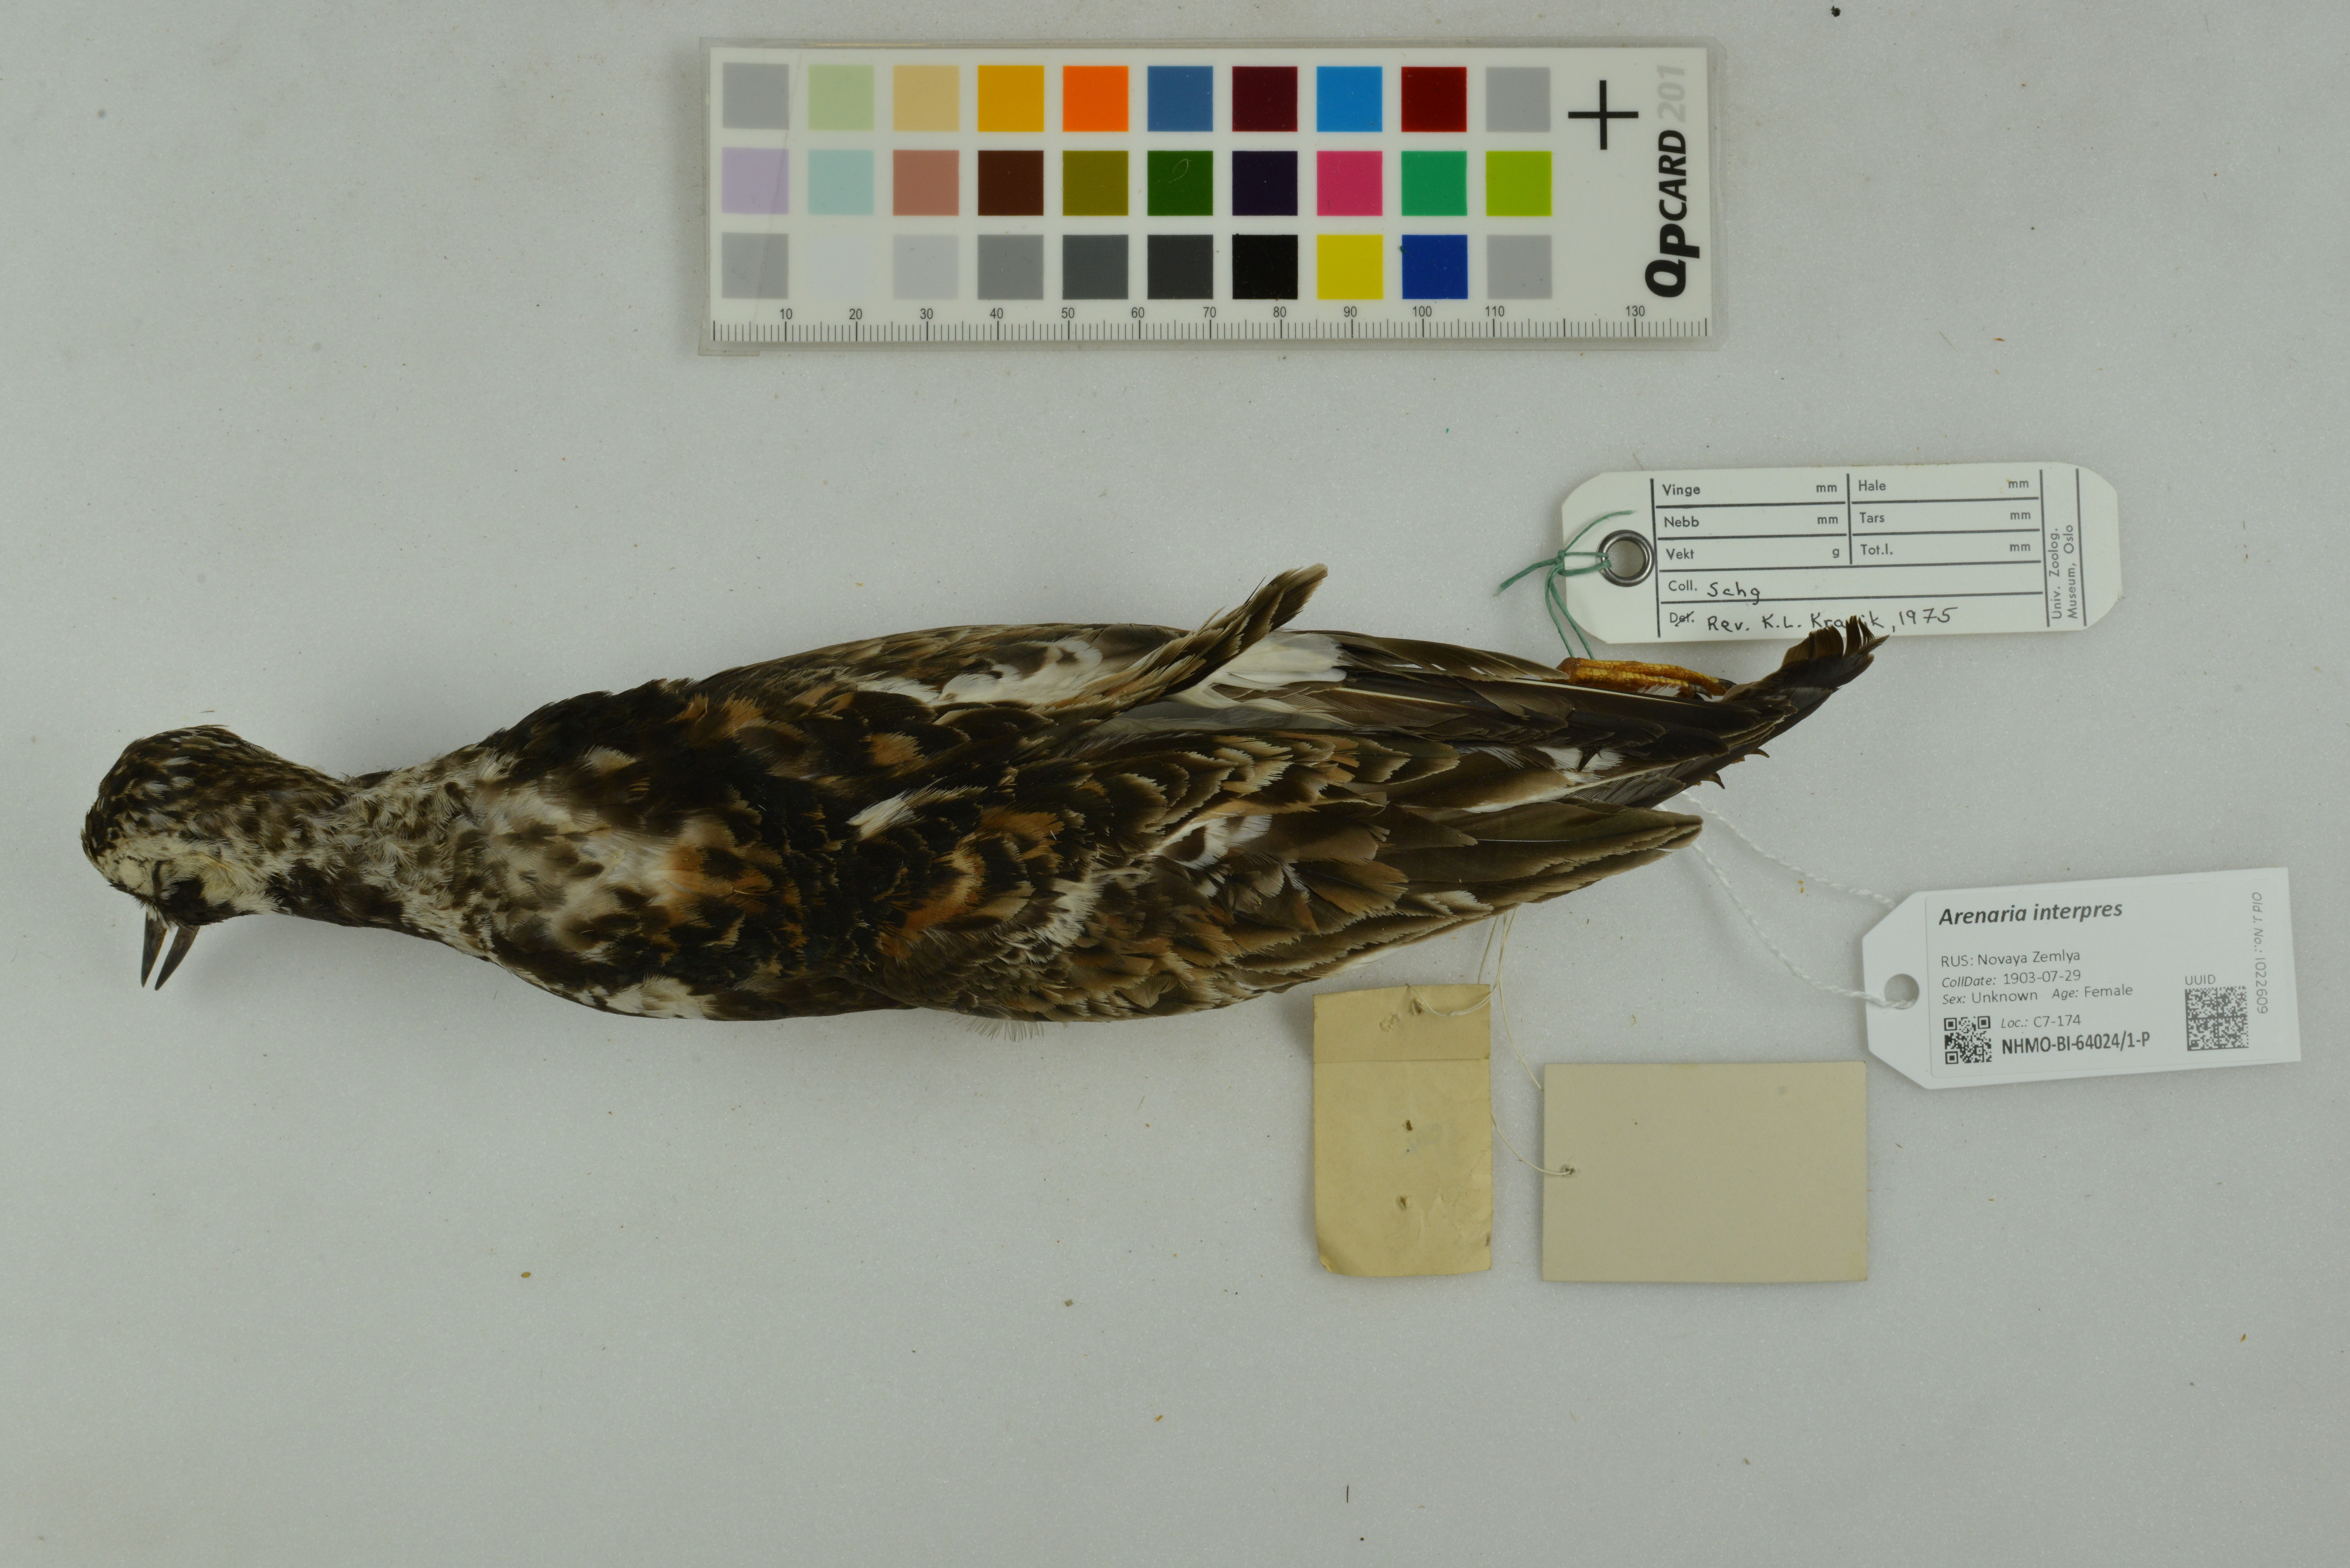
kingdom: Animalia
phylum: Chordata
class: Aves
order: Charadriiformes
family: Scolopacidae
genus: Arenaria
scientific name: Arenaria interpres
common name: Ruddy turnstone
